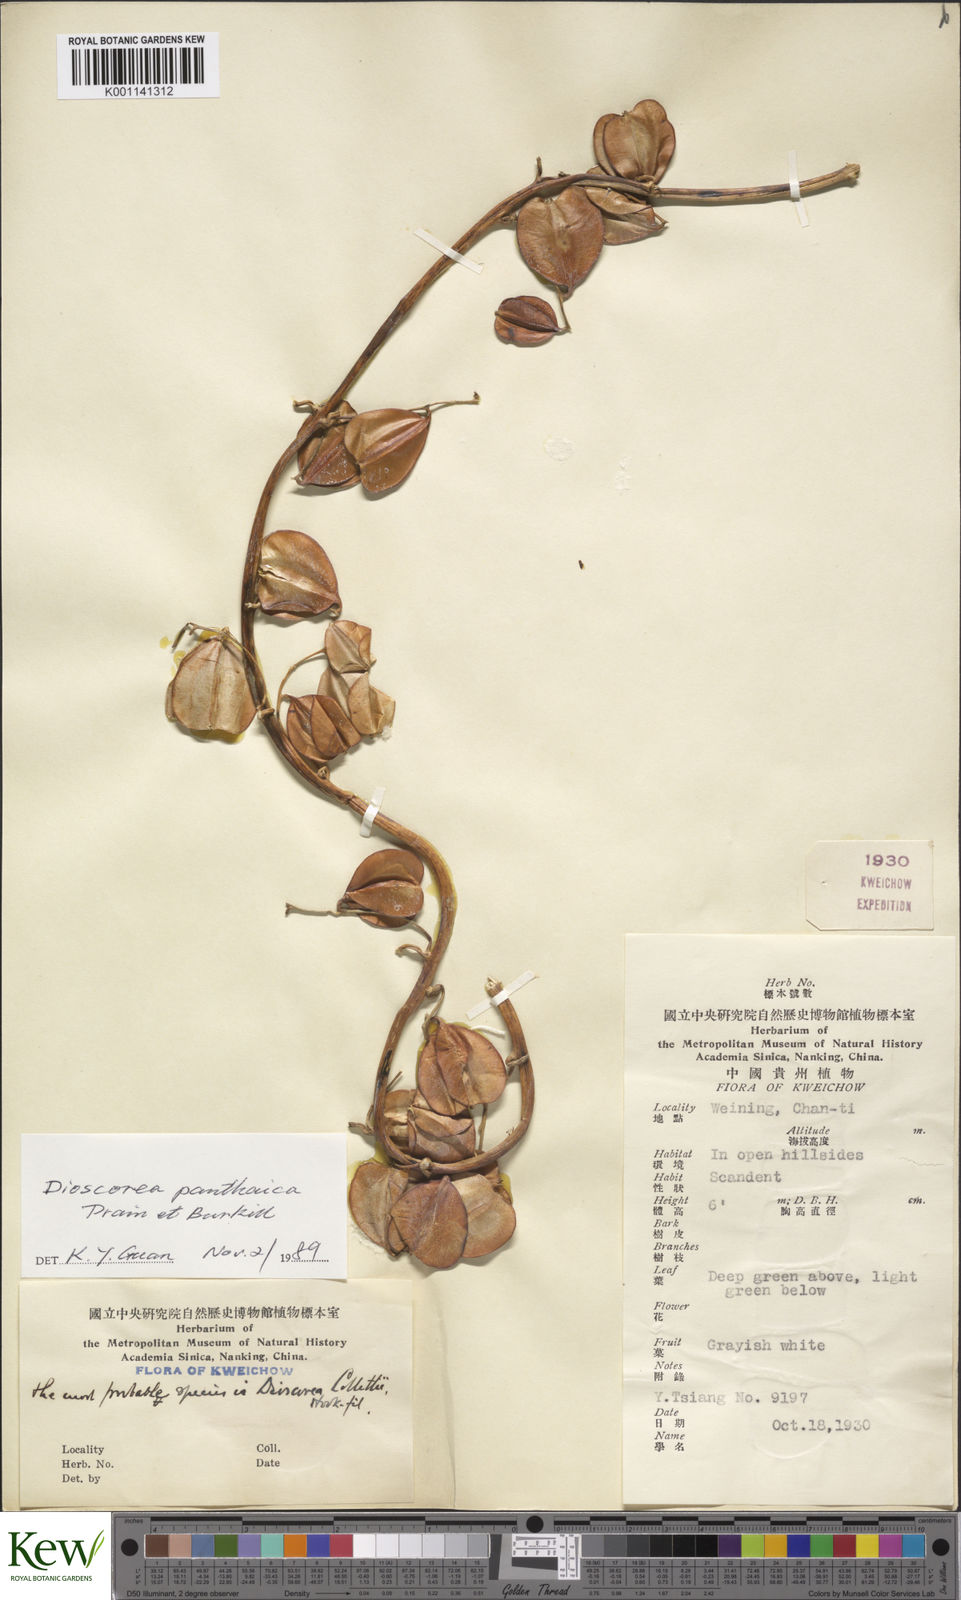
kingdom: Plantae
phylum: Tracheophyta
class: Liliopsida
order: Dioscoreales
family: Dioscoreaceae
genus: Dioscorea
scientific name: Dioscorea panthaica
